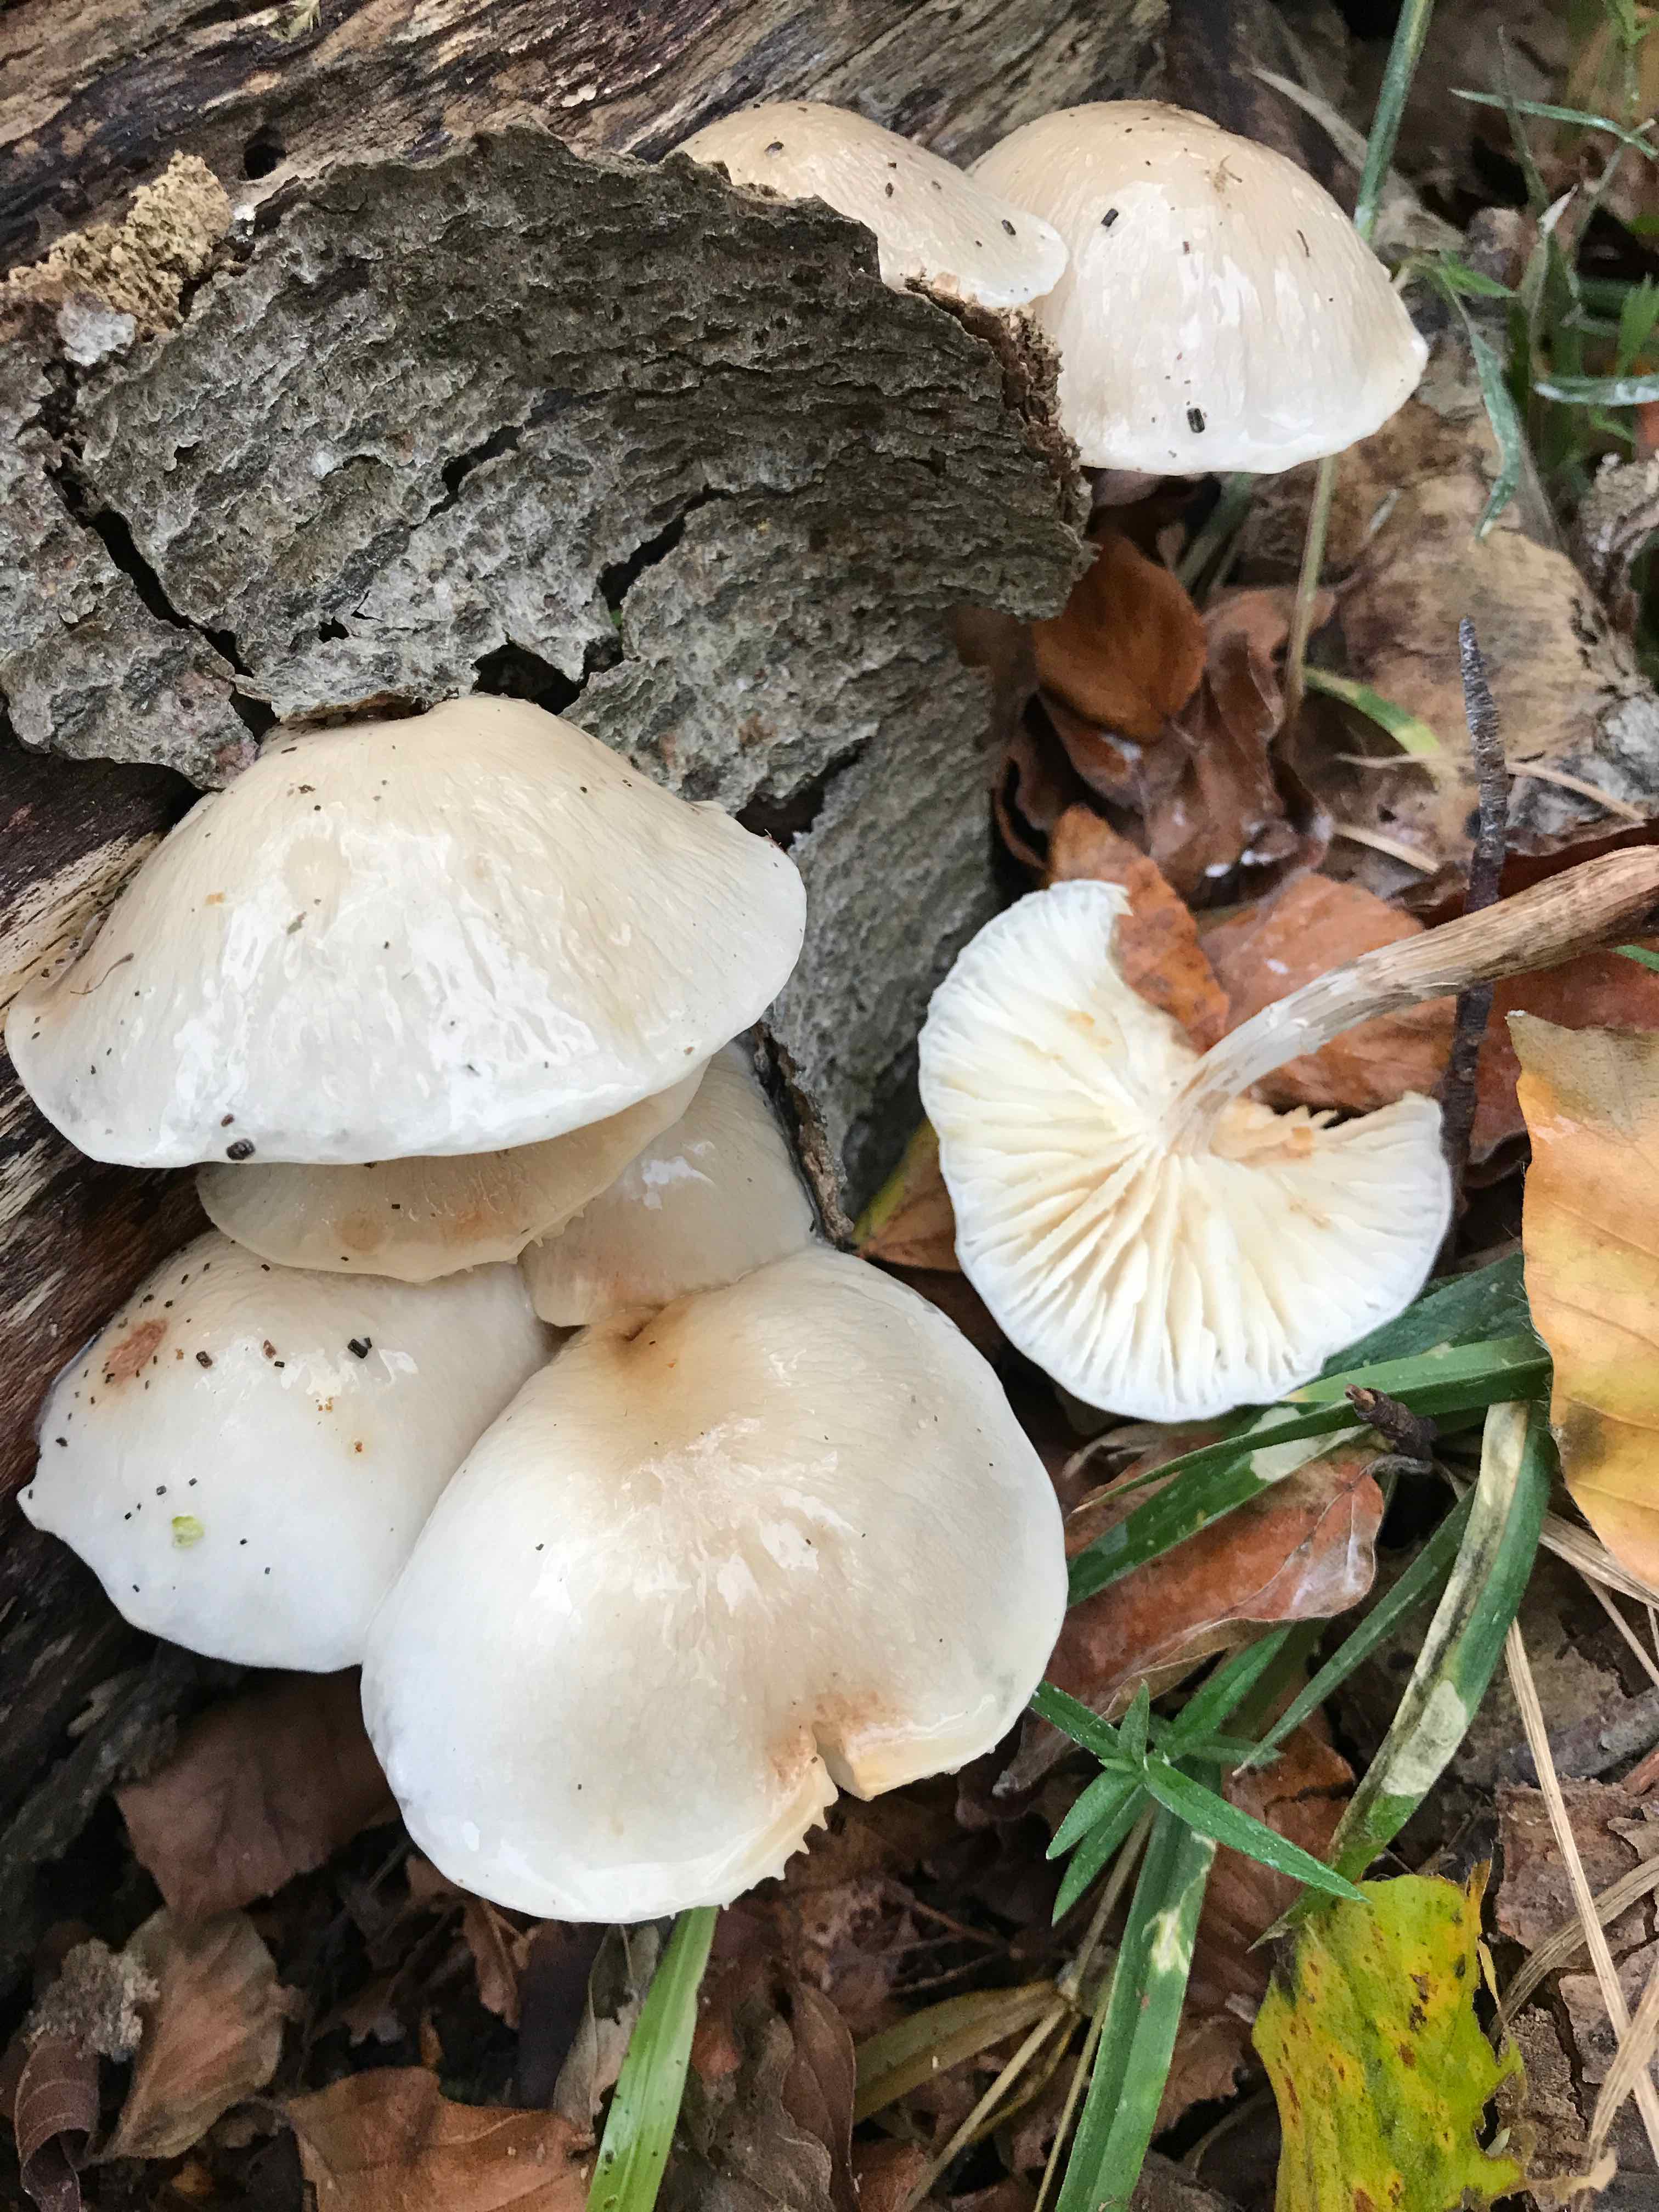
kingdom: Fungi
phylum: Basidiomycota
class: Agaricomycetes
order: Agaricales
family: Physalacriaceae
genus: Mucidula
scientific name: Mucidula mucida
